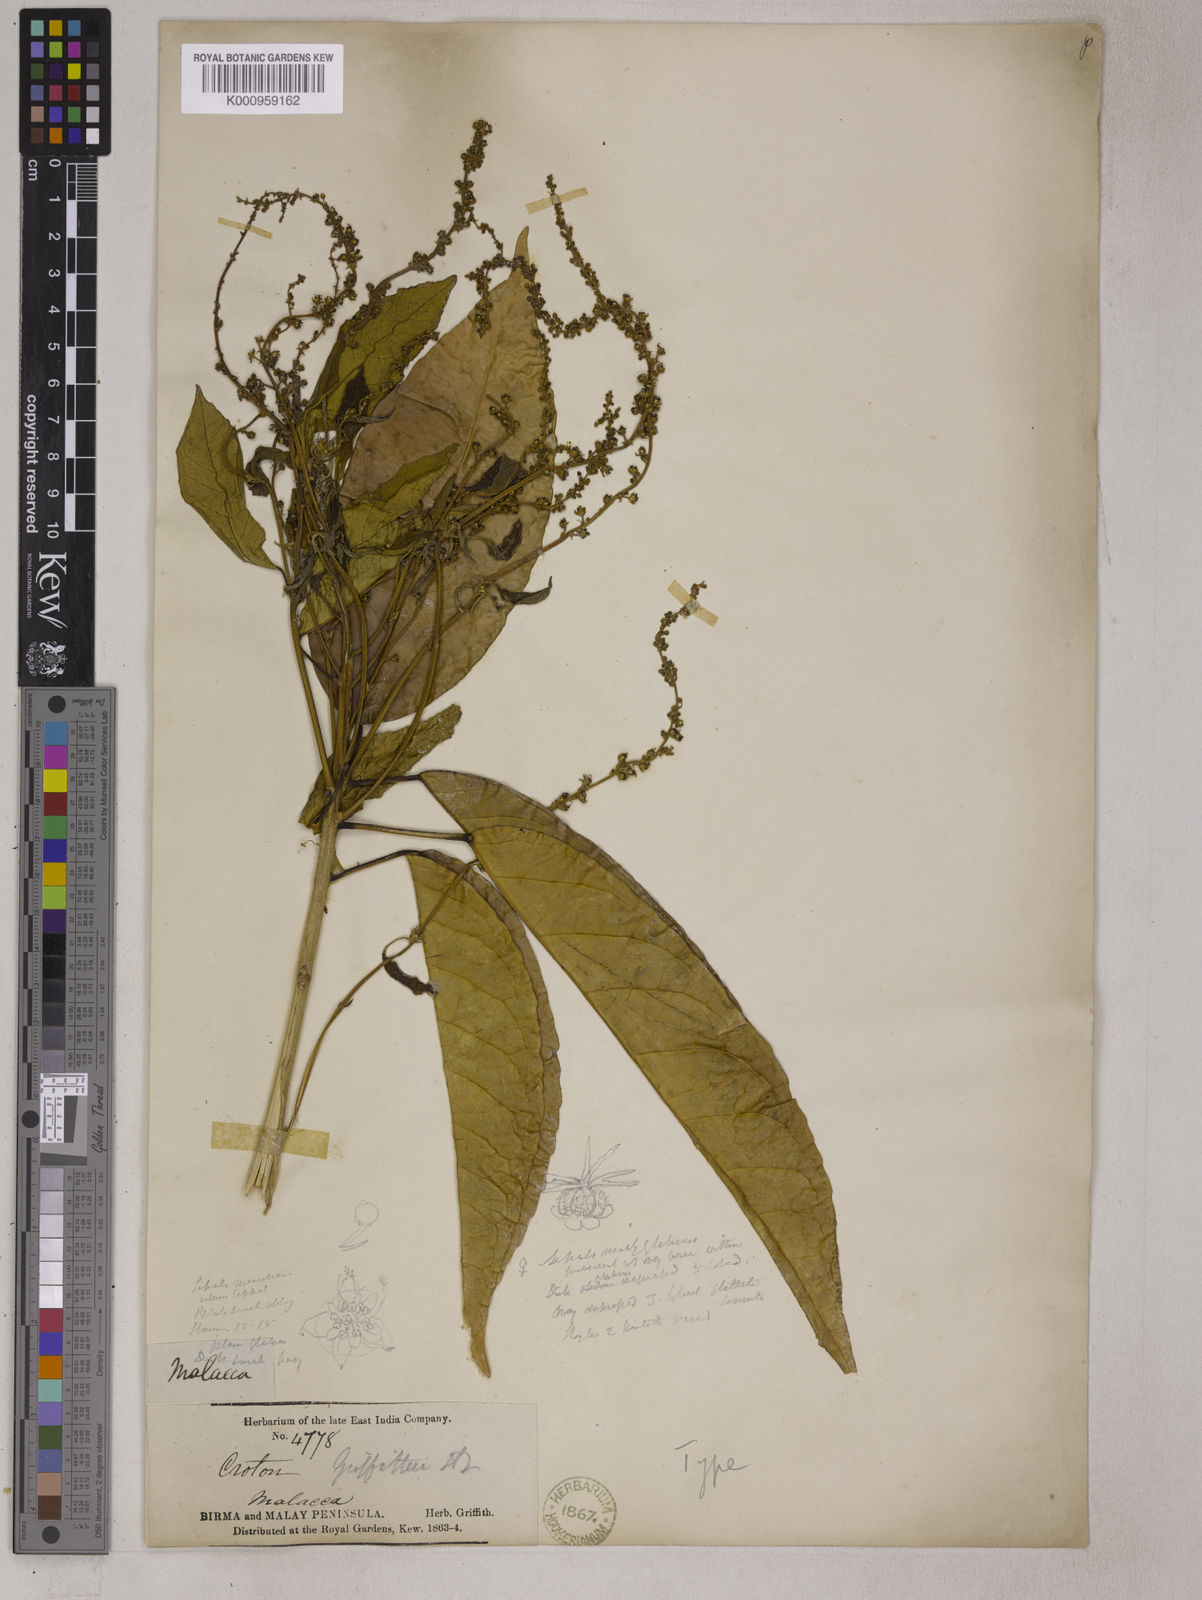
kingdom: Plantae
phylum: Tracheophyta
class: Magnoliopsida
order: Malpighiales
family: Euphorbiaceae
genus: Croton
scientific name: Croton griffithii
